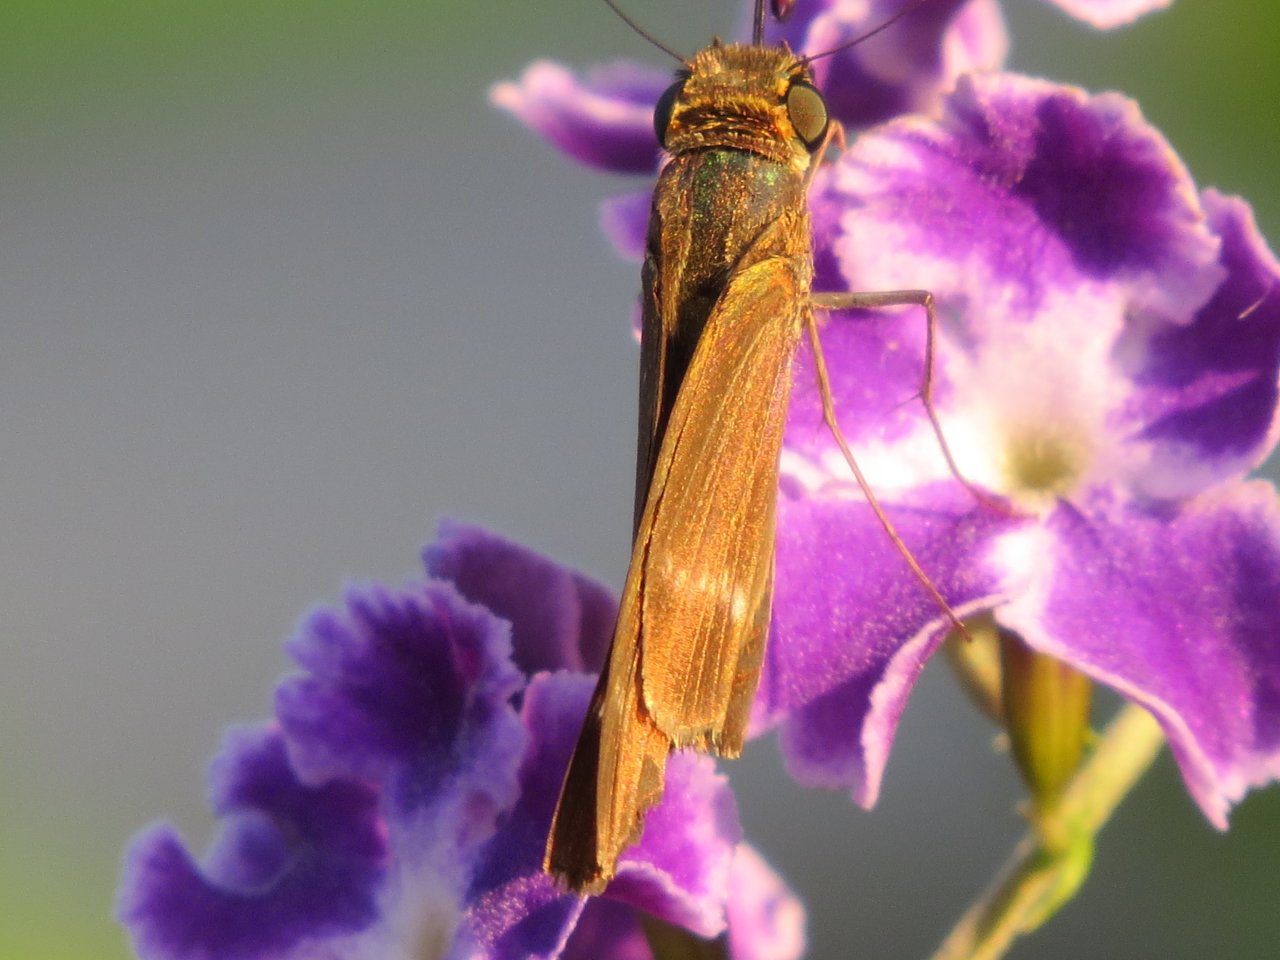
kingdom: Animalia
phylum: Arthropoda
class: Insecta
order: Lepidoptera
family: Hesperiidae
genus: Panoquina
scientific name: Panoquina ocola
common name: Ocola Skipper
